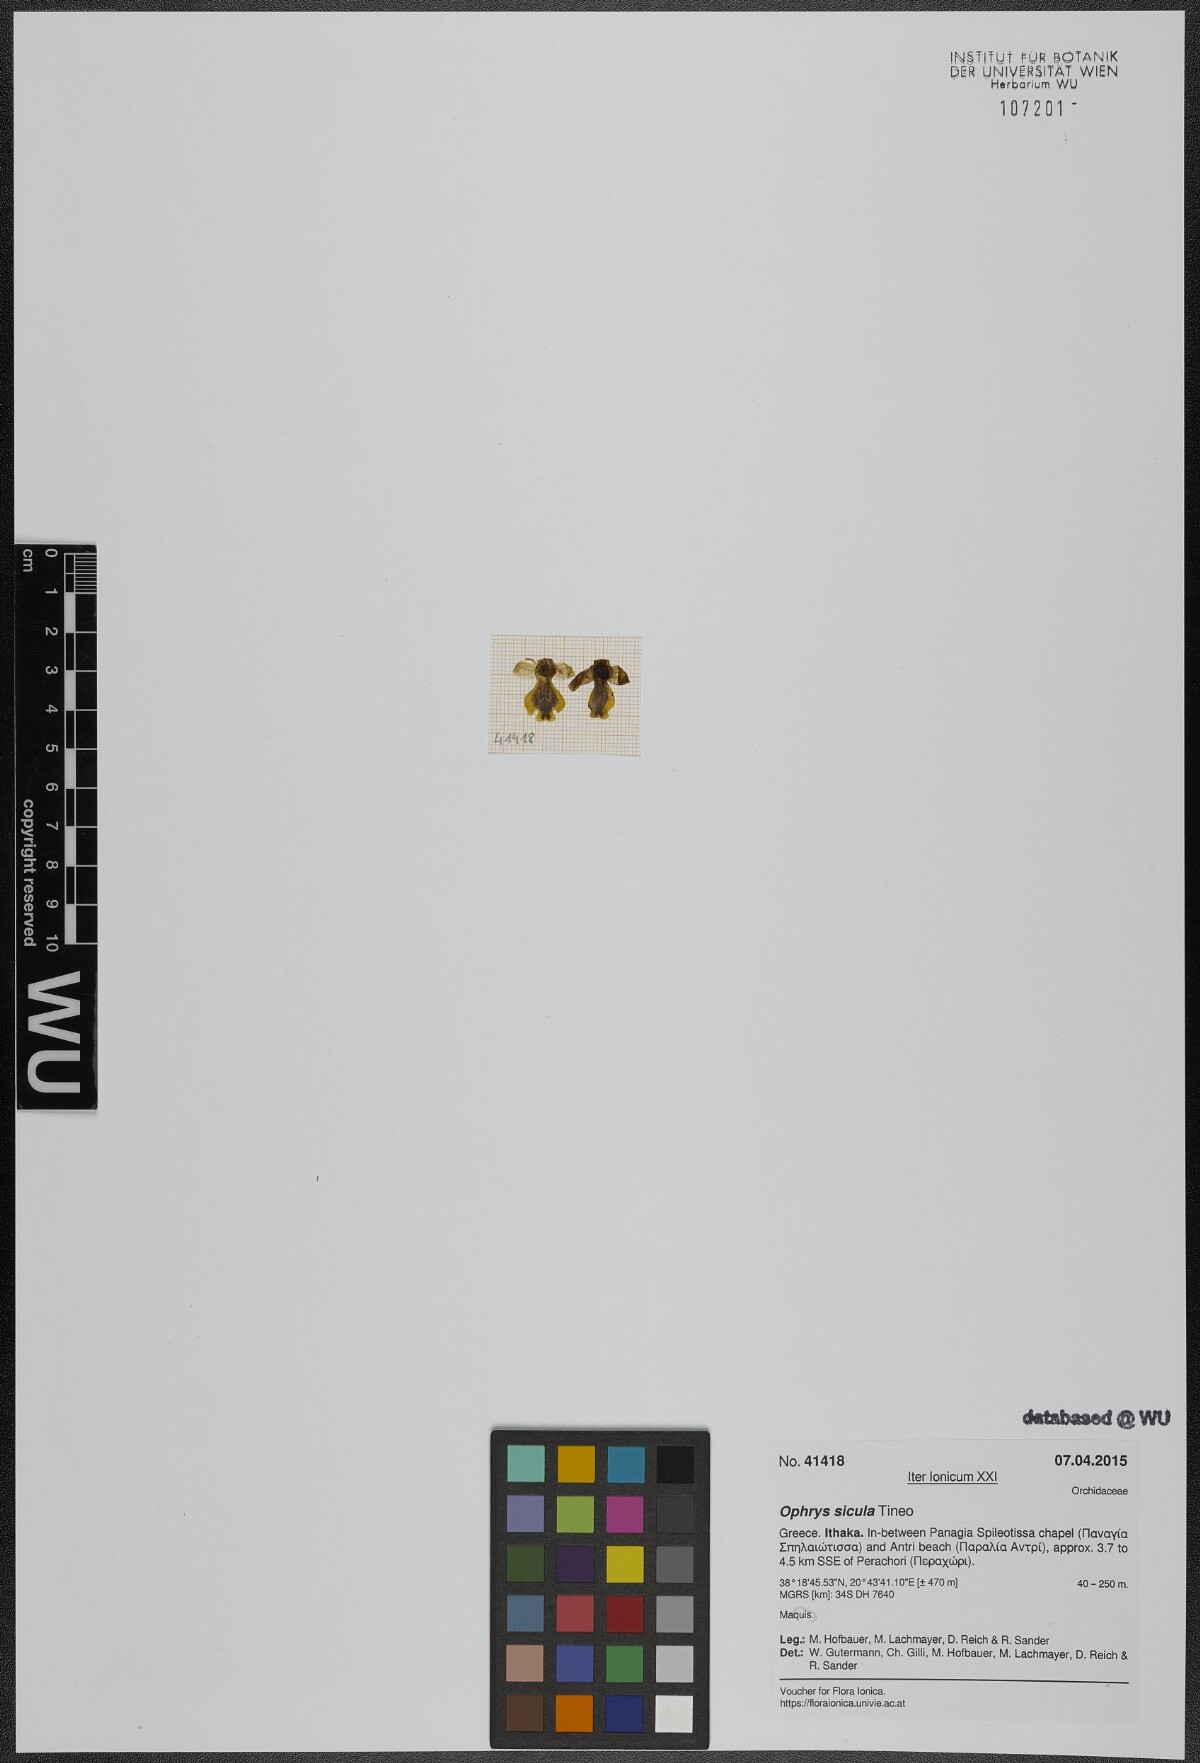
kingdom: Plantae
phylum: Tracheophyta
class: Liliopsida
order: Asparagales
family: Orchidaceae
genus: Ophrys
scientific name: Ophrys lutea
